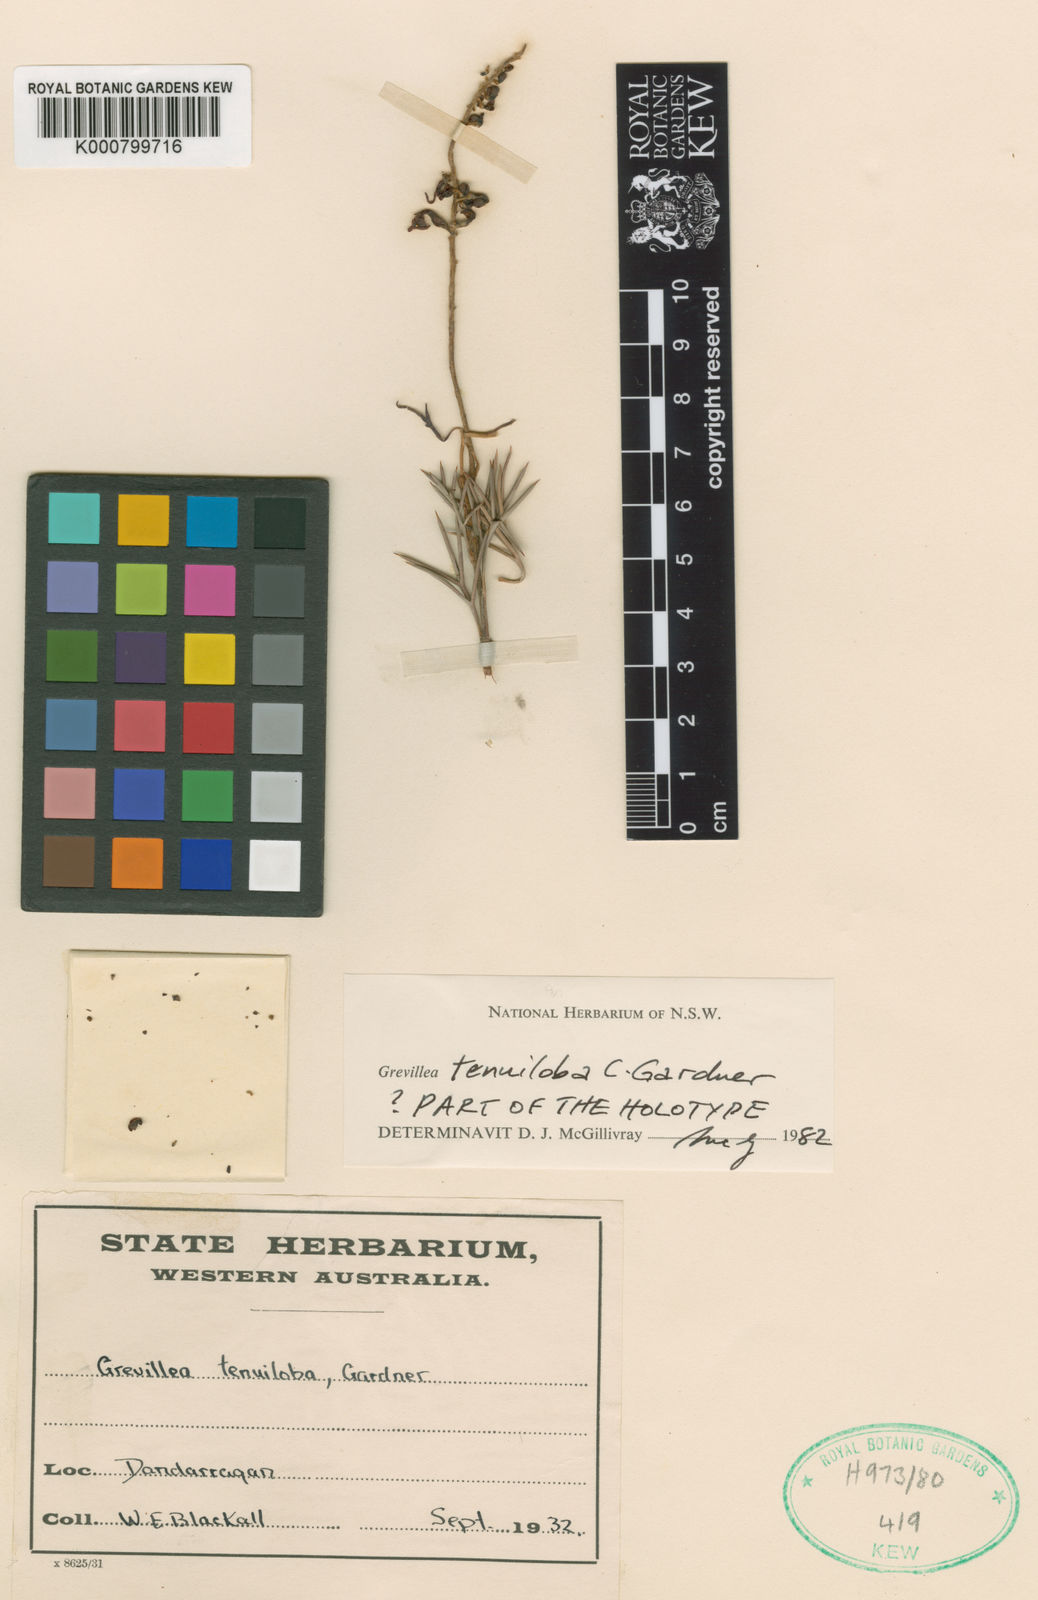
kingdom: Plantae
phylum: Tracheophyta
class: Magnoliopsida
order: Proteales
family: Proteaceae
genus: Grevillea
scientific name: Grevillea tenuiloba
